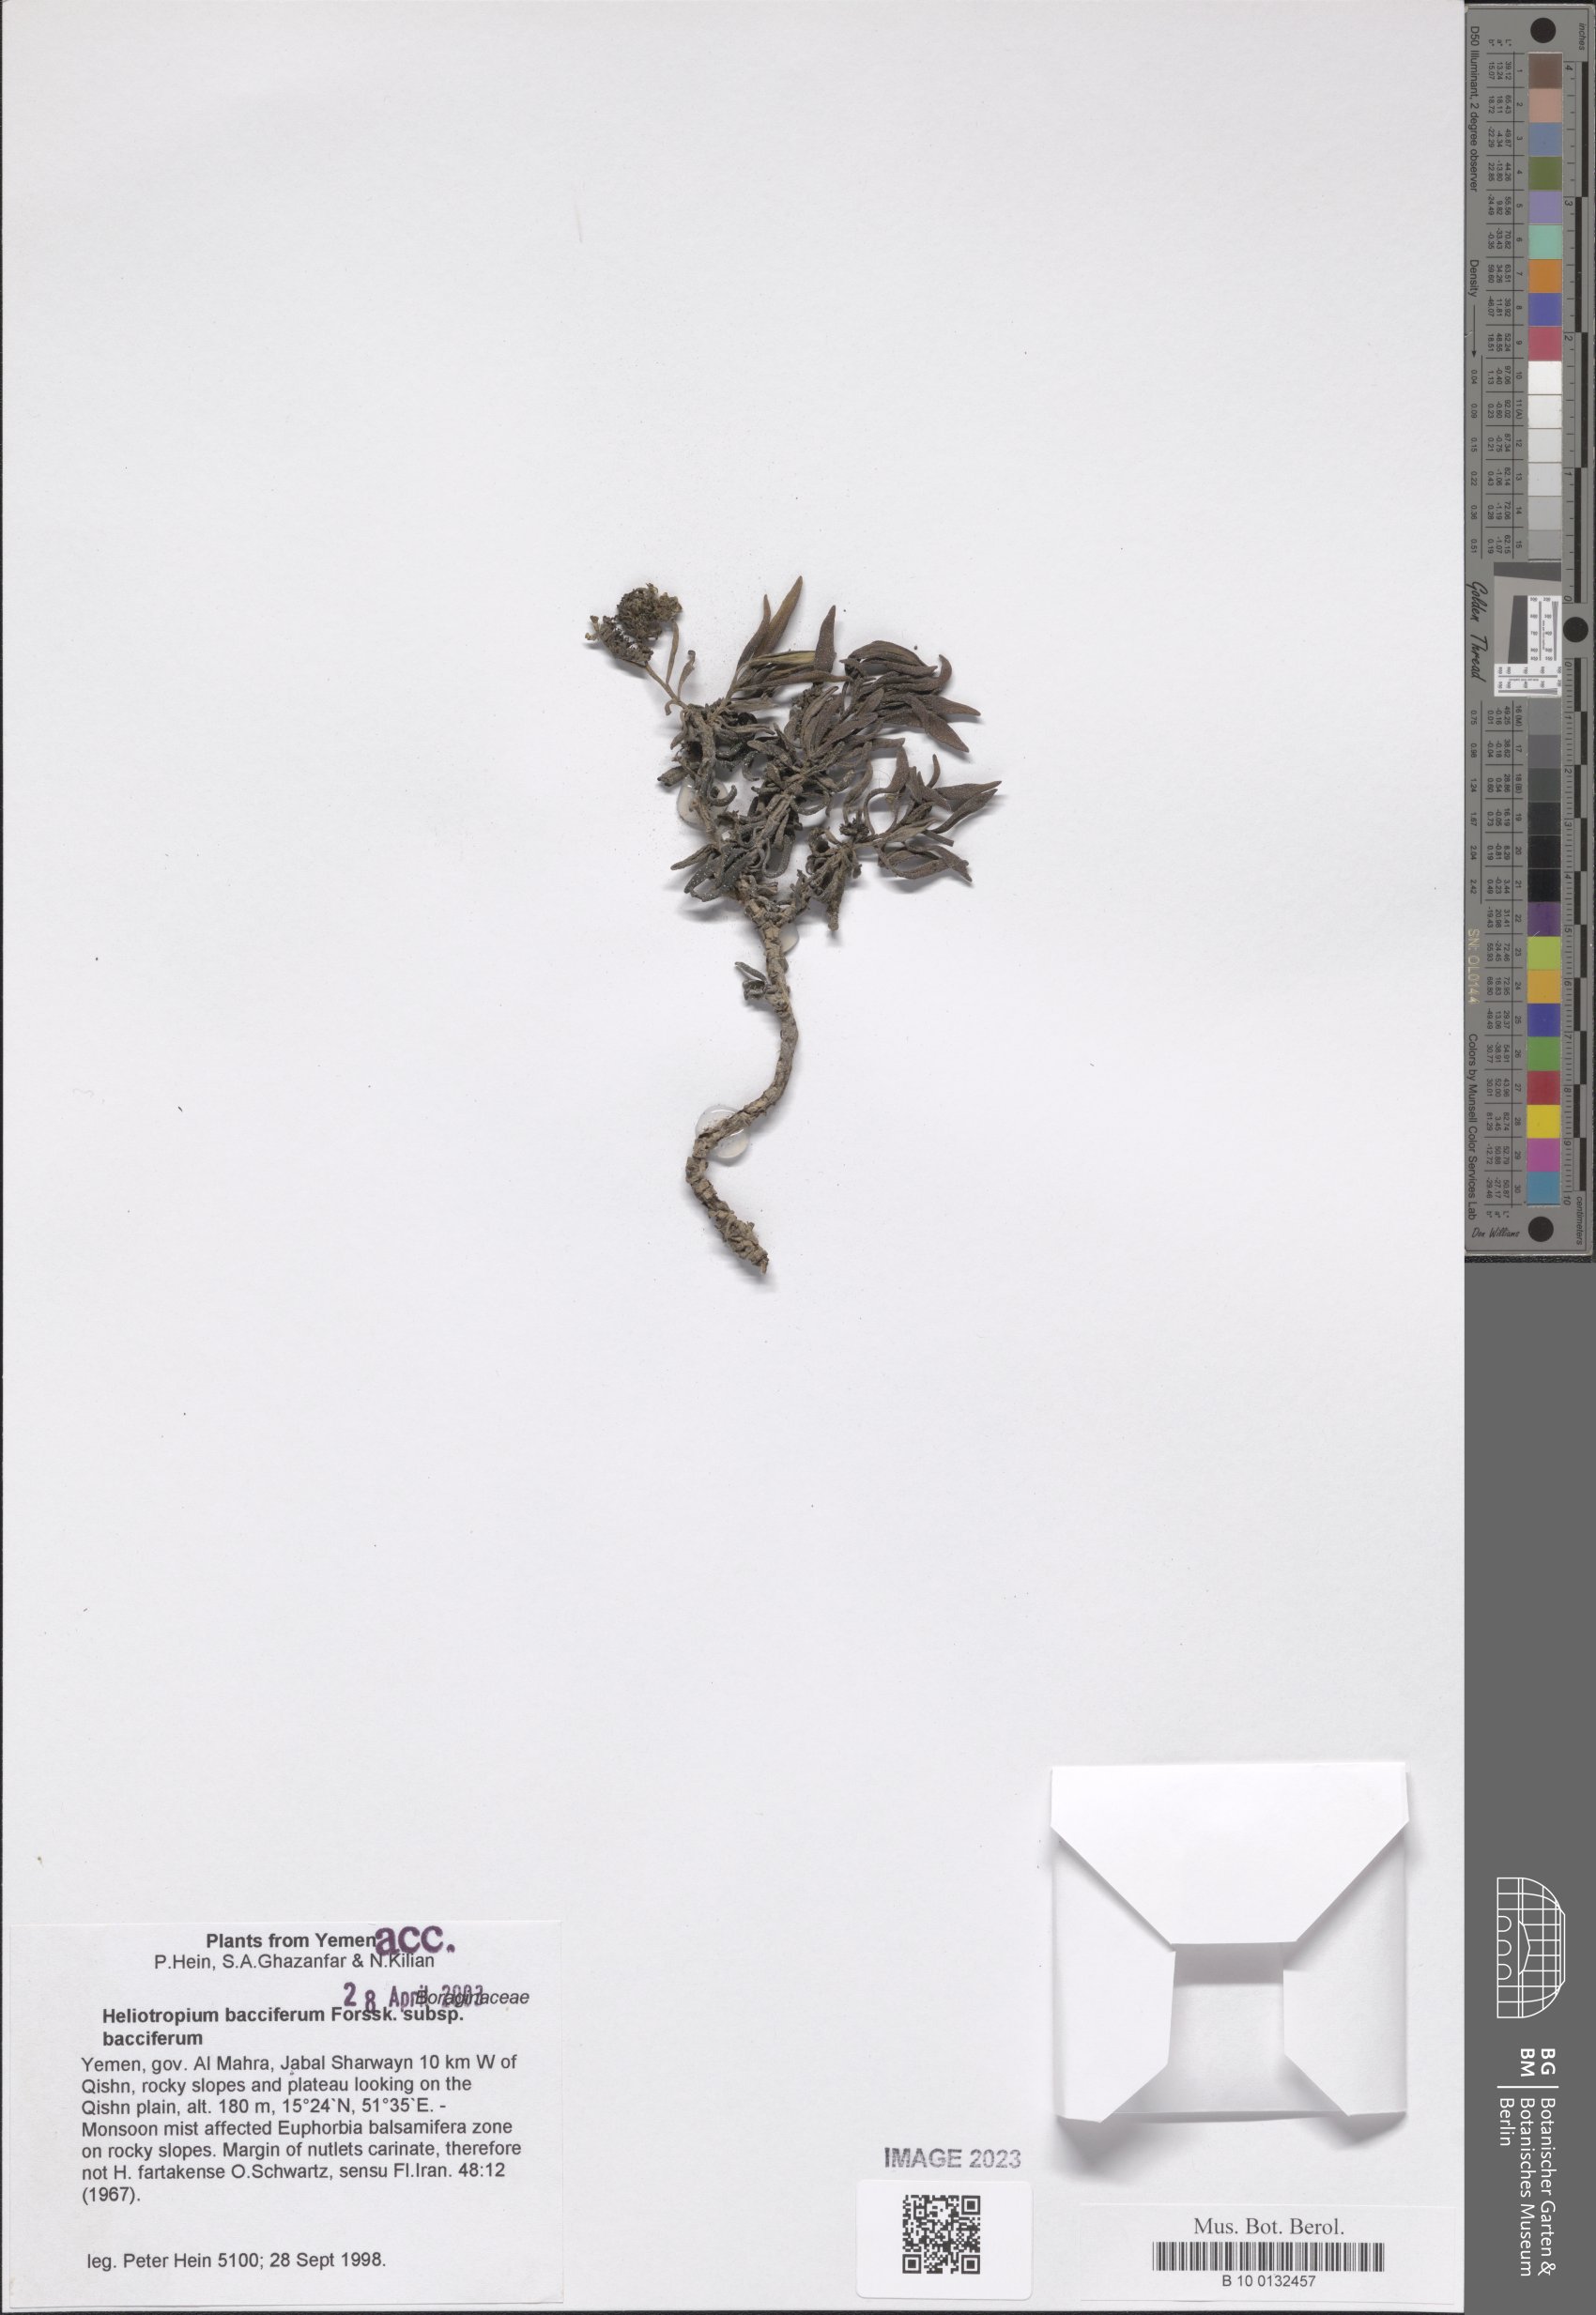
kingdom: Plantae
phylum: Tracheophyta
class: Magnoliopsida
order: Boraginales
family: Heliotropiaceae
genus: Heliotropium
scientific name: Heliotropium bacciferum
